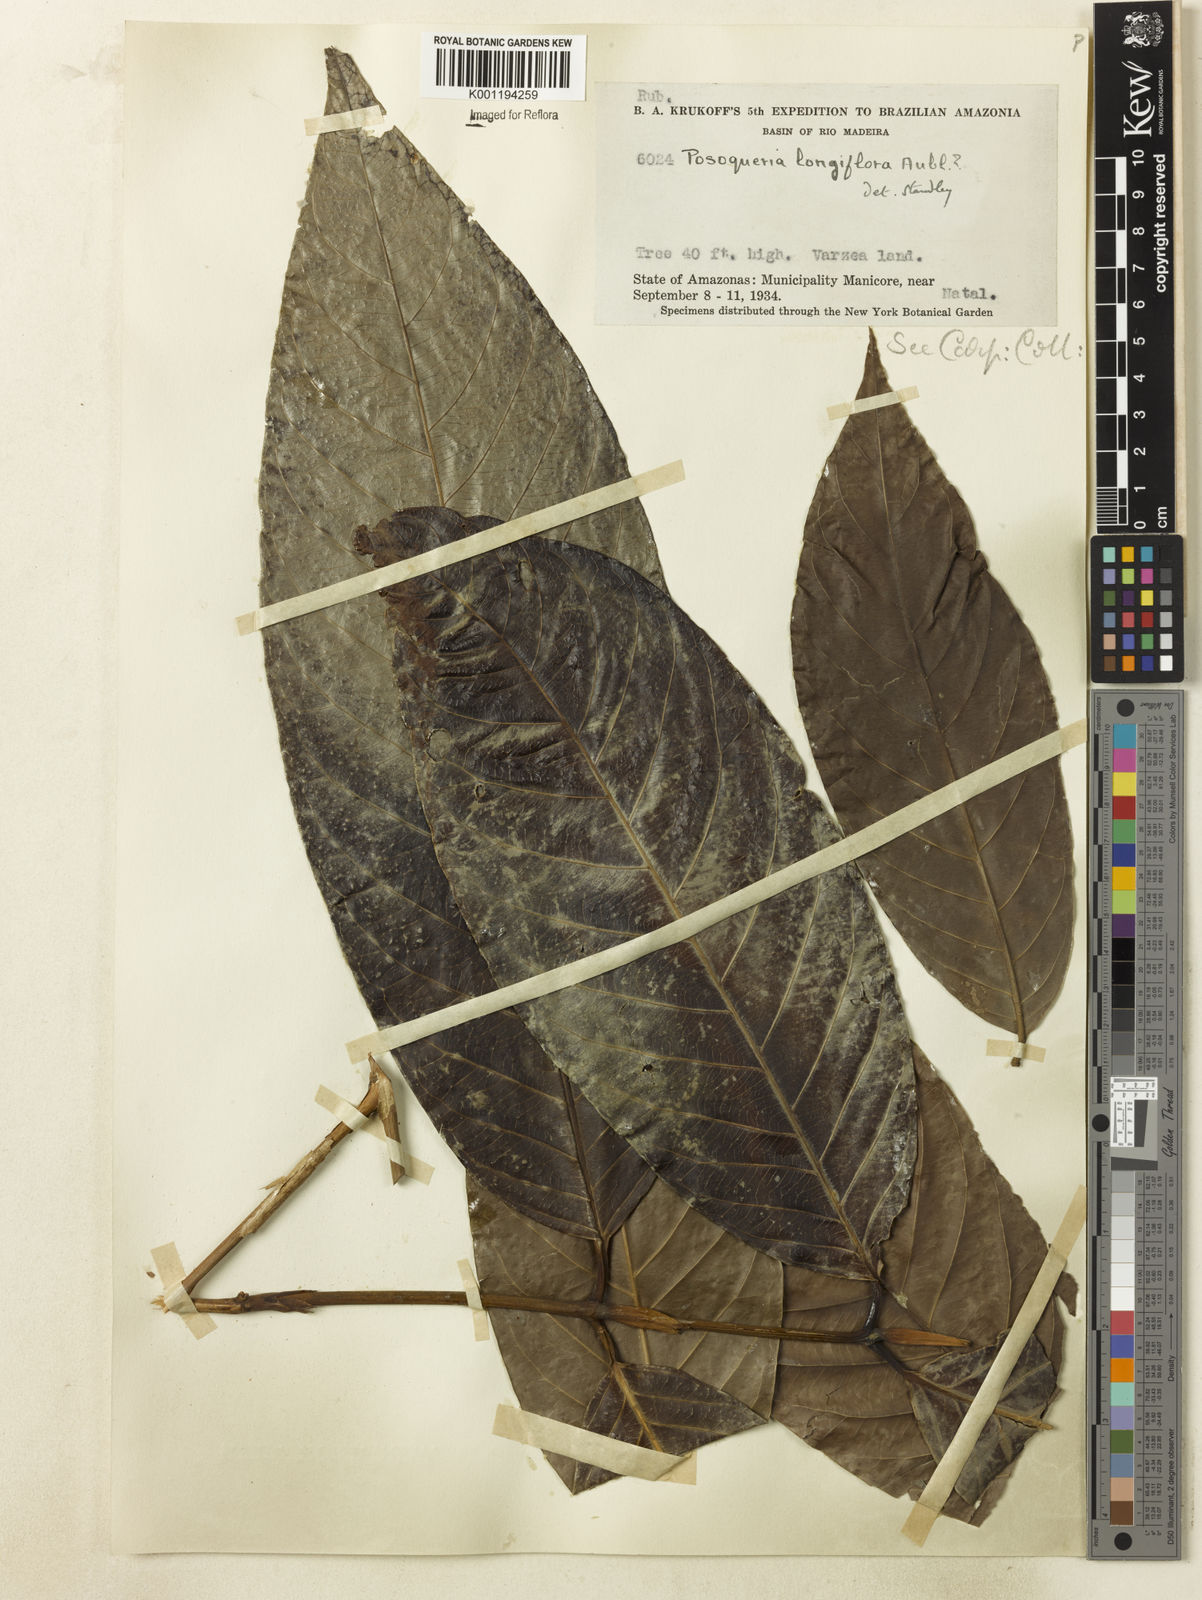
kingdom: Plantae
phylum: Tracheophyta
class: Magnoliopsida
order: Gentianales
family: Rubiaceae
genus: Posoqueria
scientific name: Posoqueria longiflora
